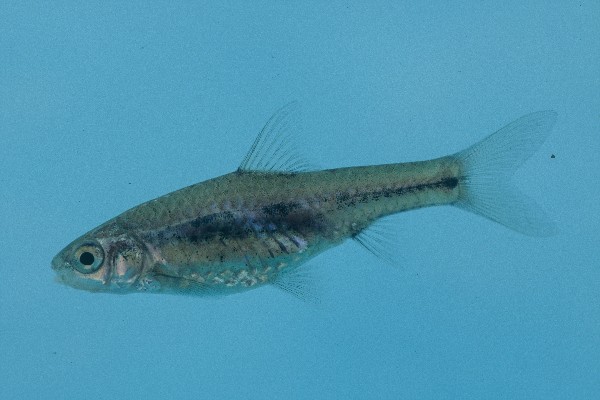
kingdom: Animalia
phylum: Chordata
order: Cypriniformes
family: Cyprinidae
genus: Enteromius
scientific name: Enteromius toppini
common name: East coast barb
